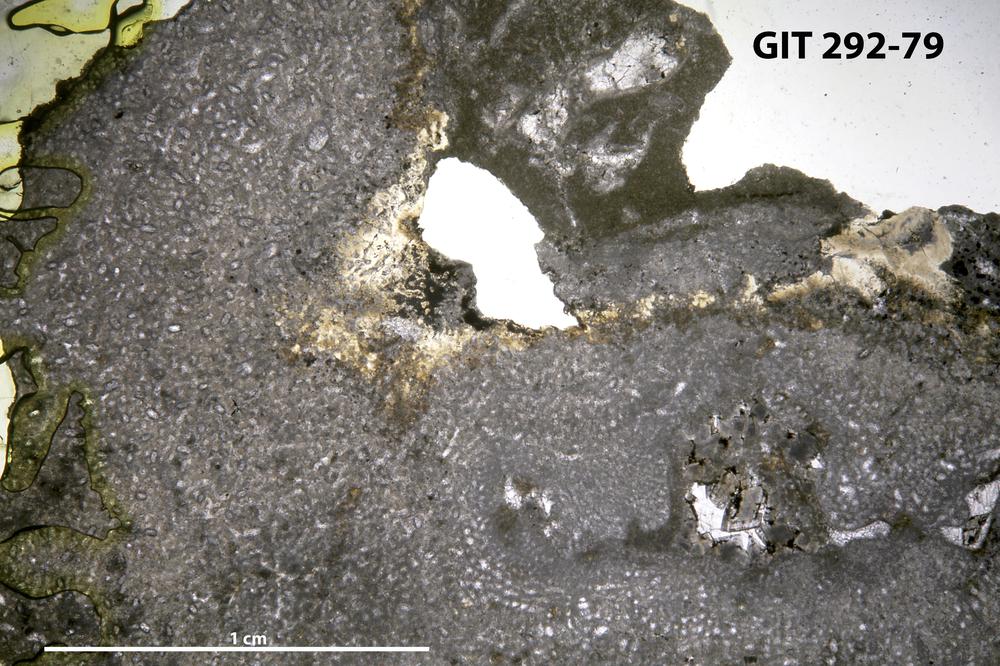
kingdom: Animalia
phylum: Porifera
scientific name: Porifera
